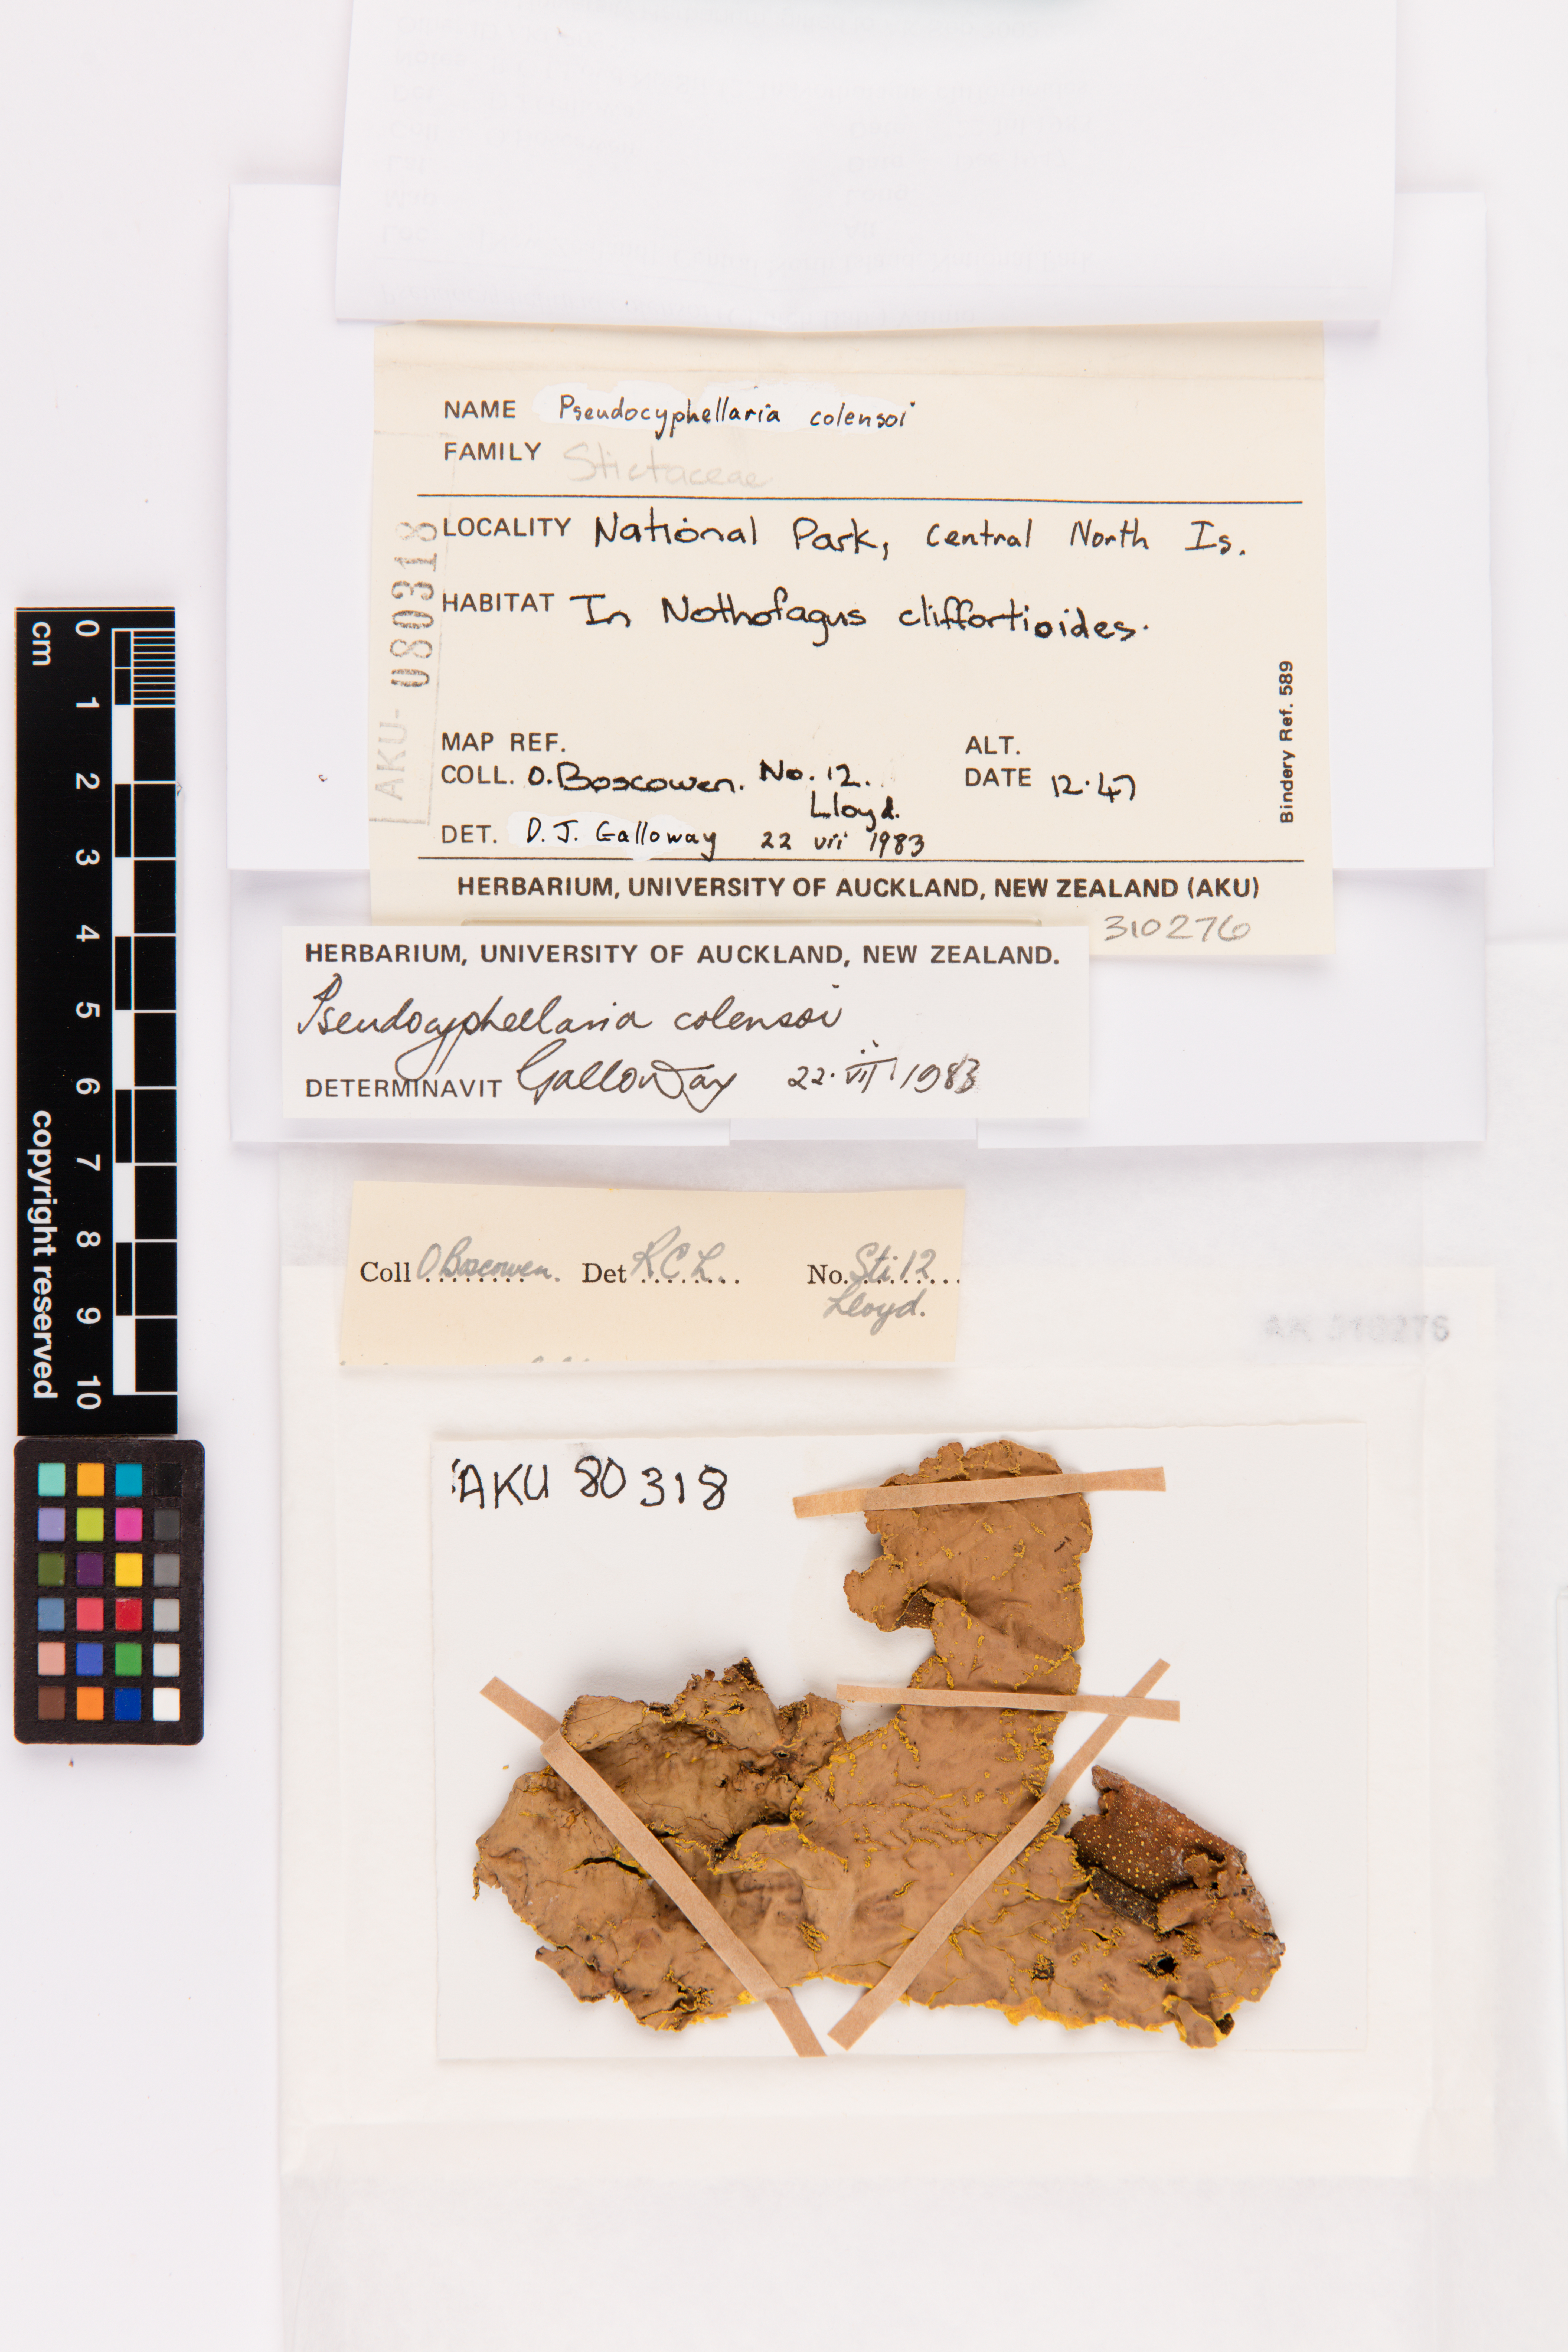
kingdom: Fungi
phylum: Ascomycota
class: Lecanoromycetes
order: Peltigerales
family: Lobariaceae
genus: Yarrumia
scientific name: Yarrumia colensoi
